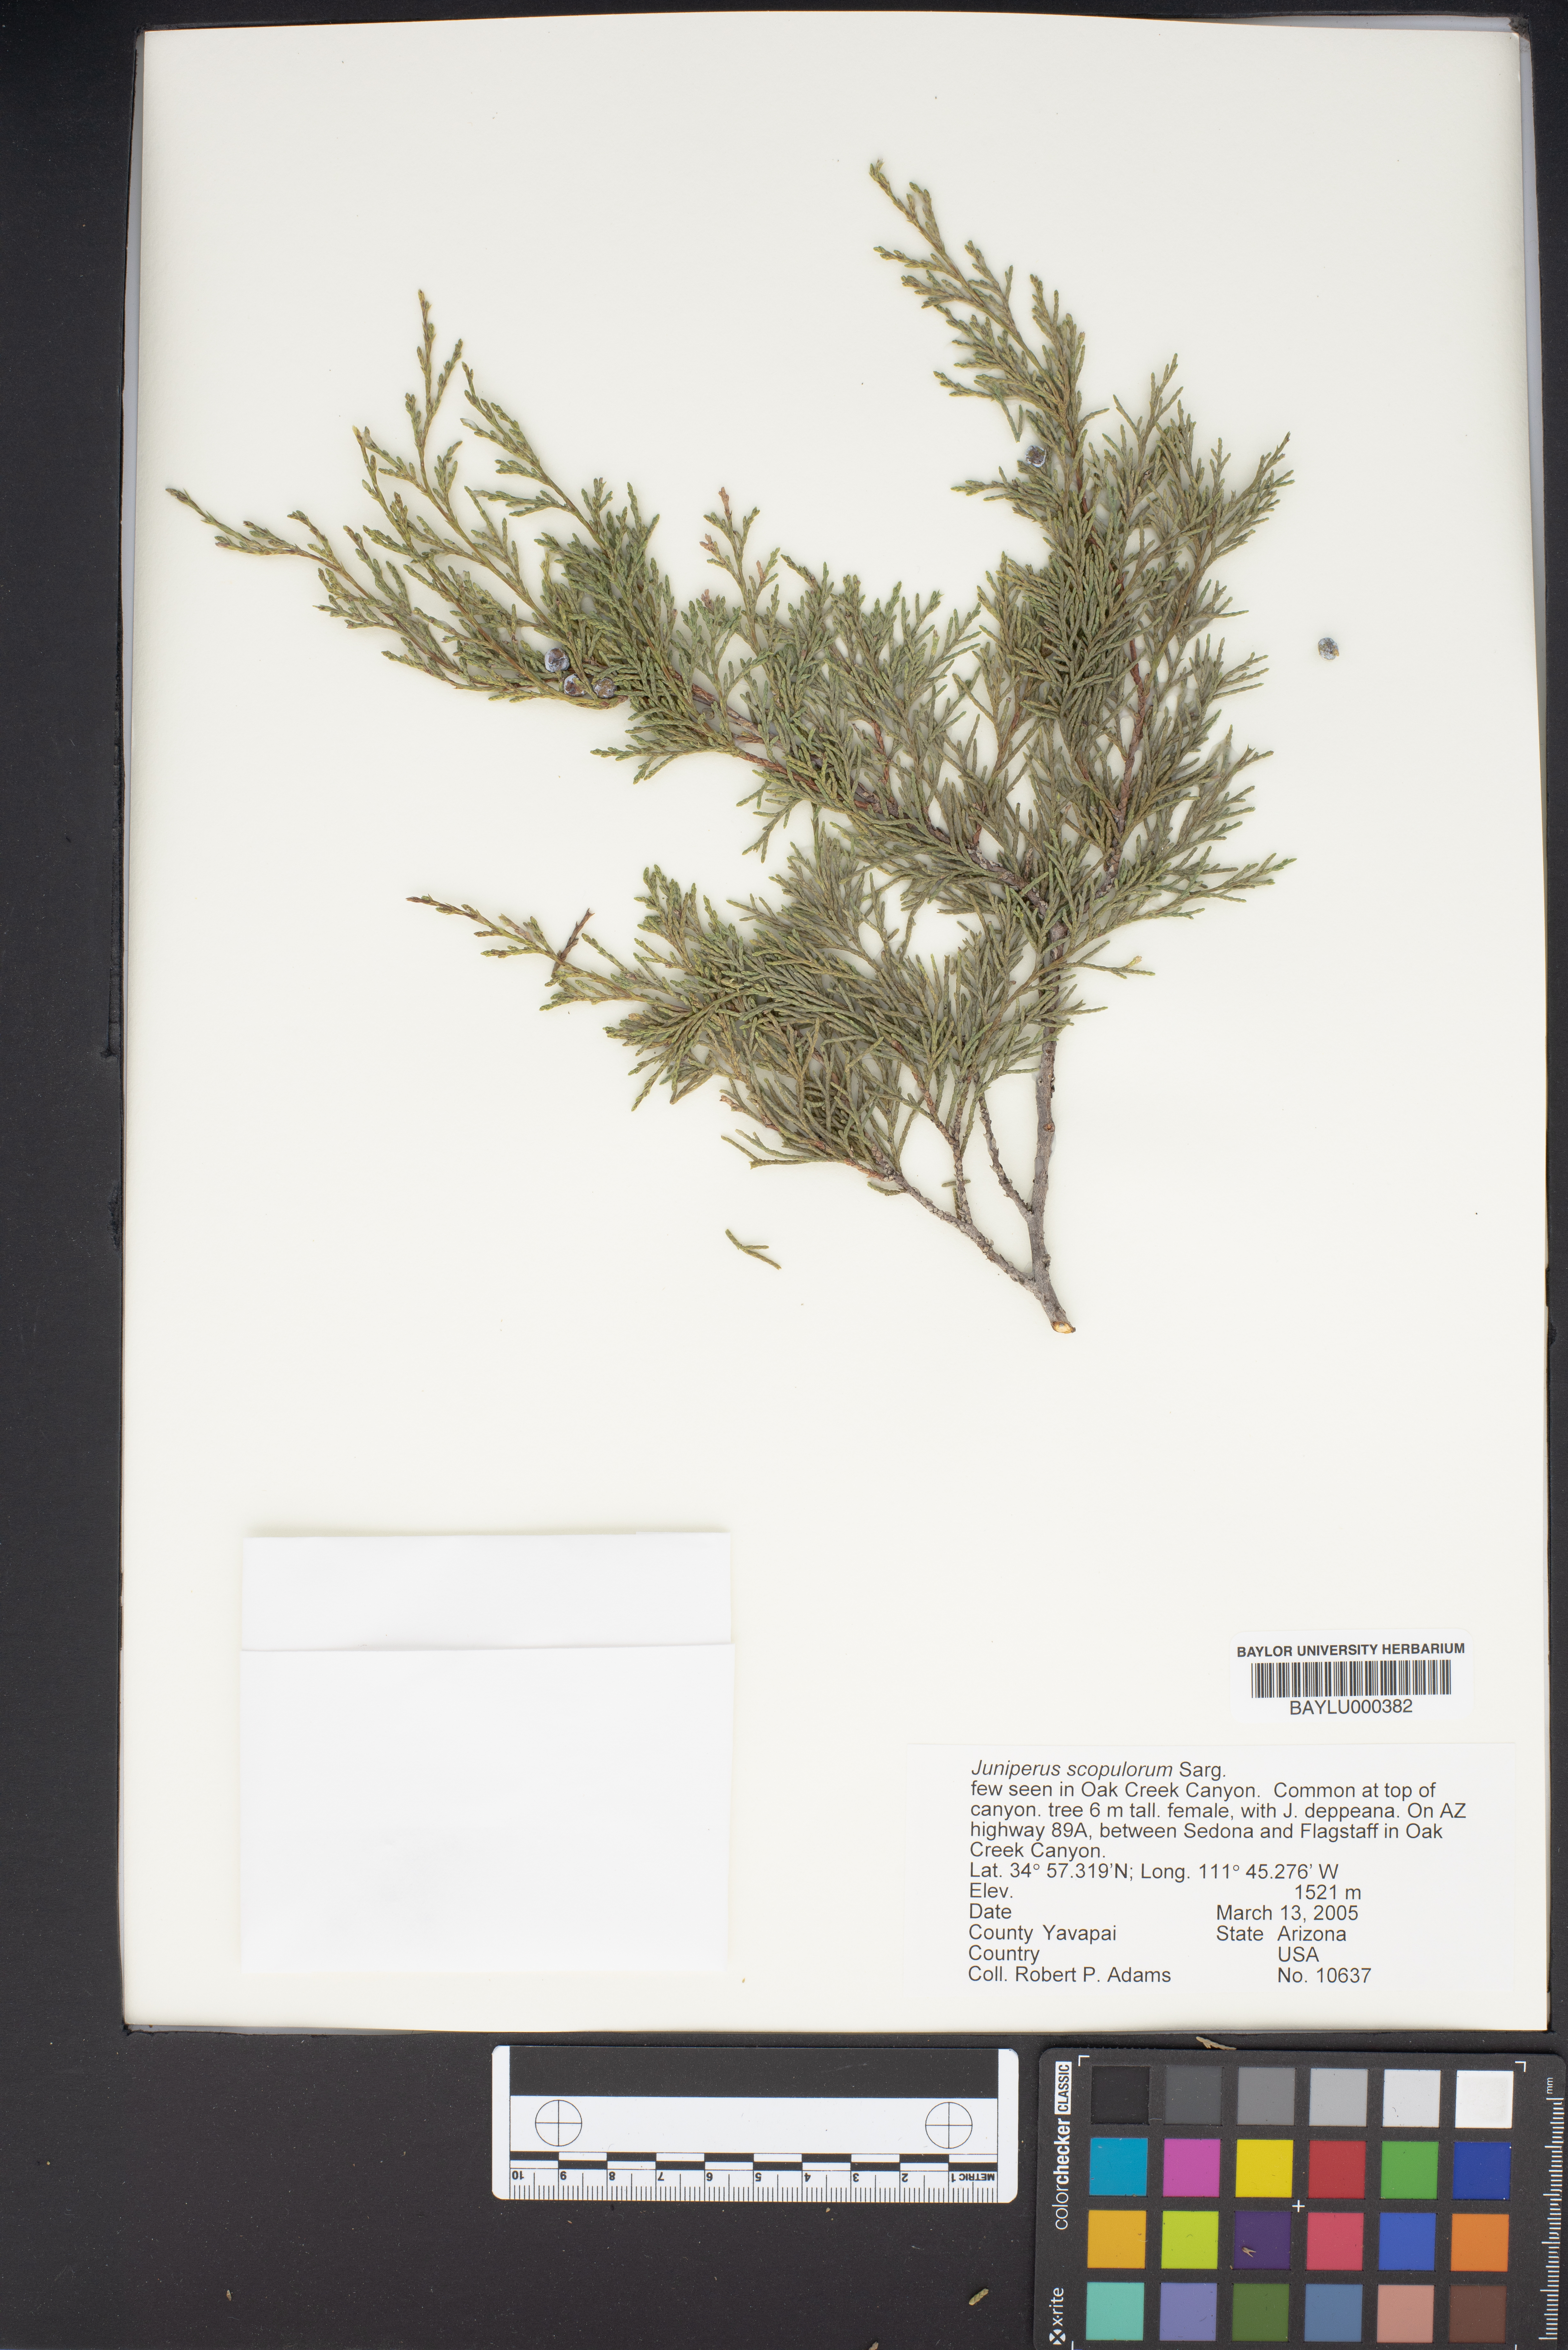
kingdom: Plantae
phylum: Tracheophyta
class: Pinopsida
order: Pinales
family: Cupressaceae
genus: Juniperus
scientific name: Juniperus scopulorum
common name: Rocky mountain juniper
